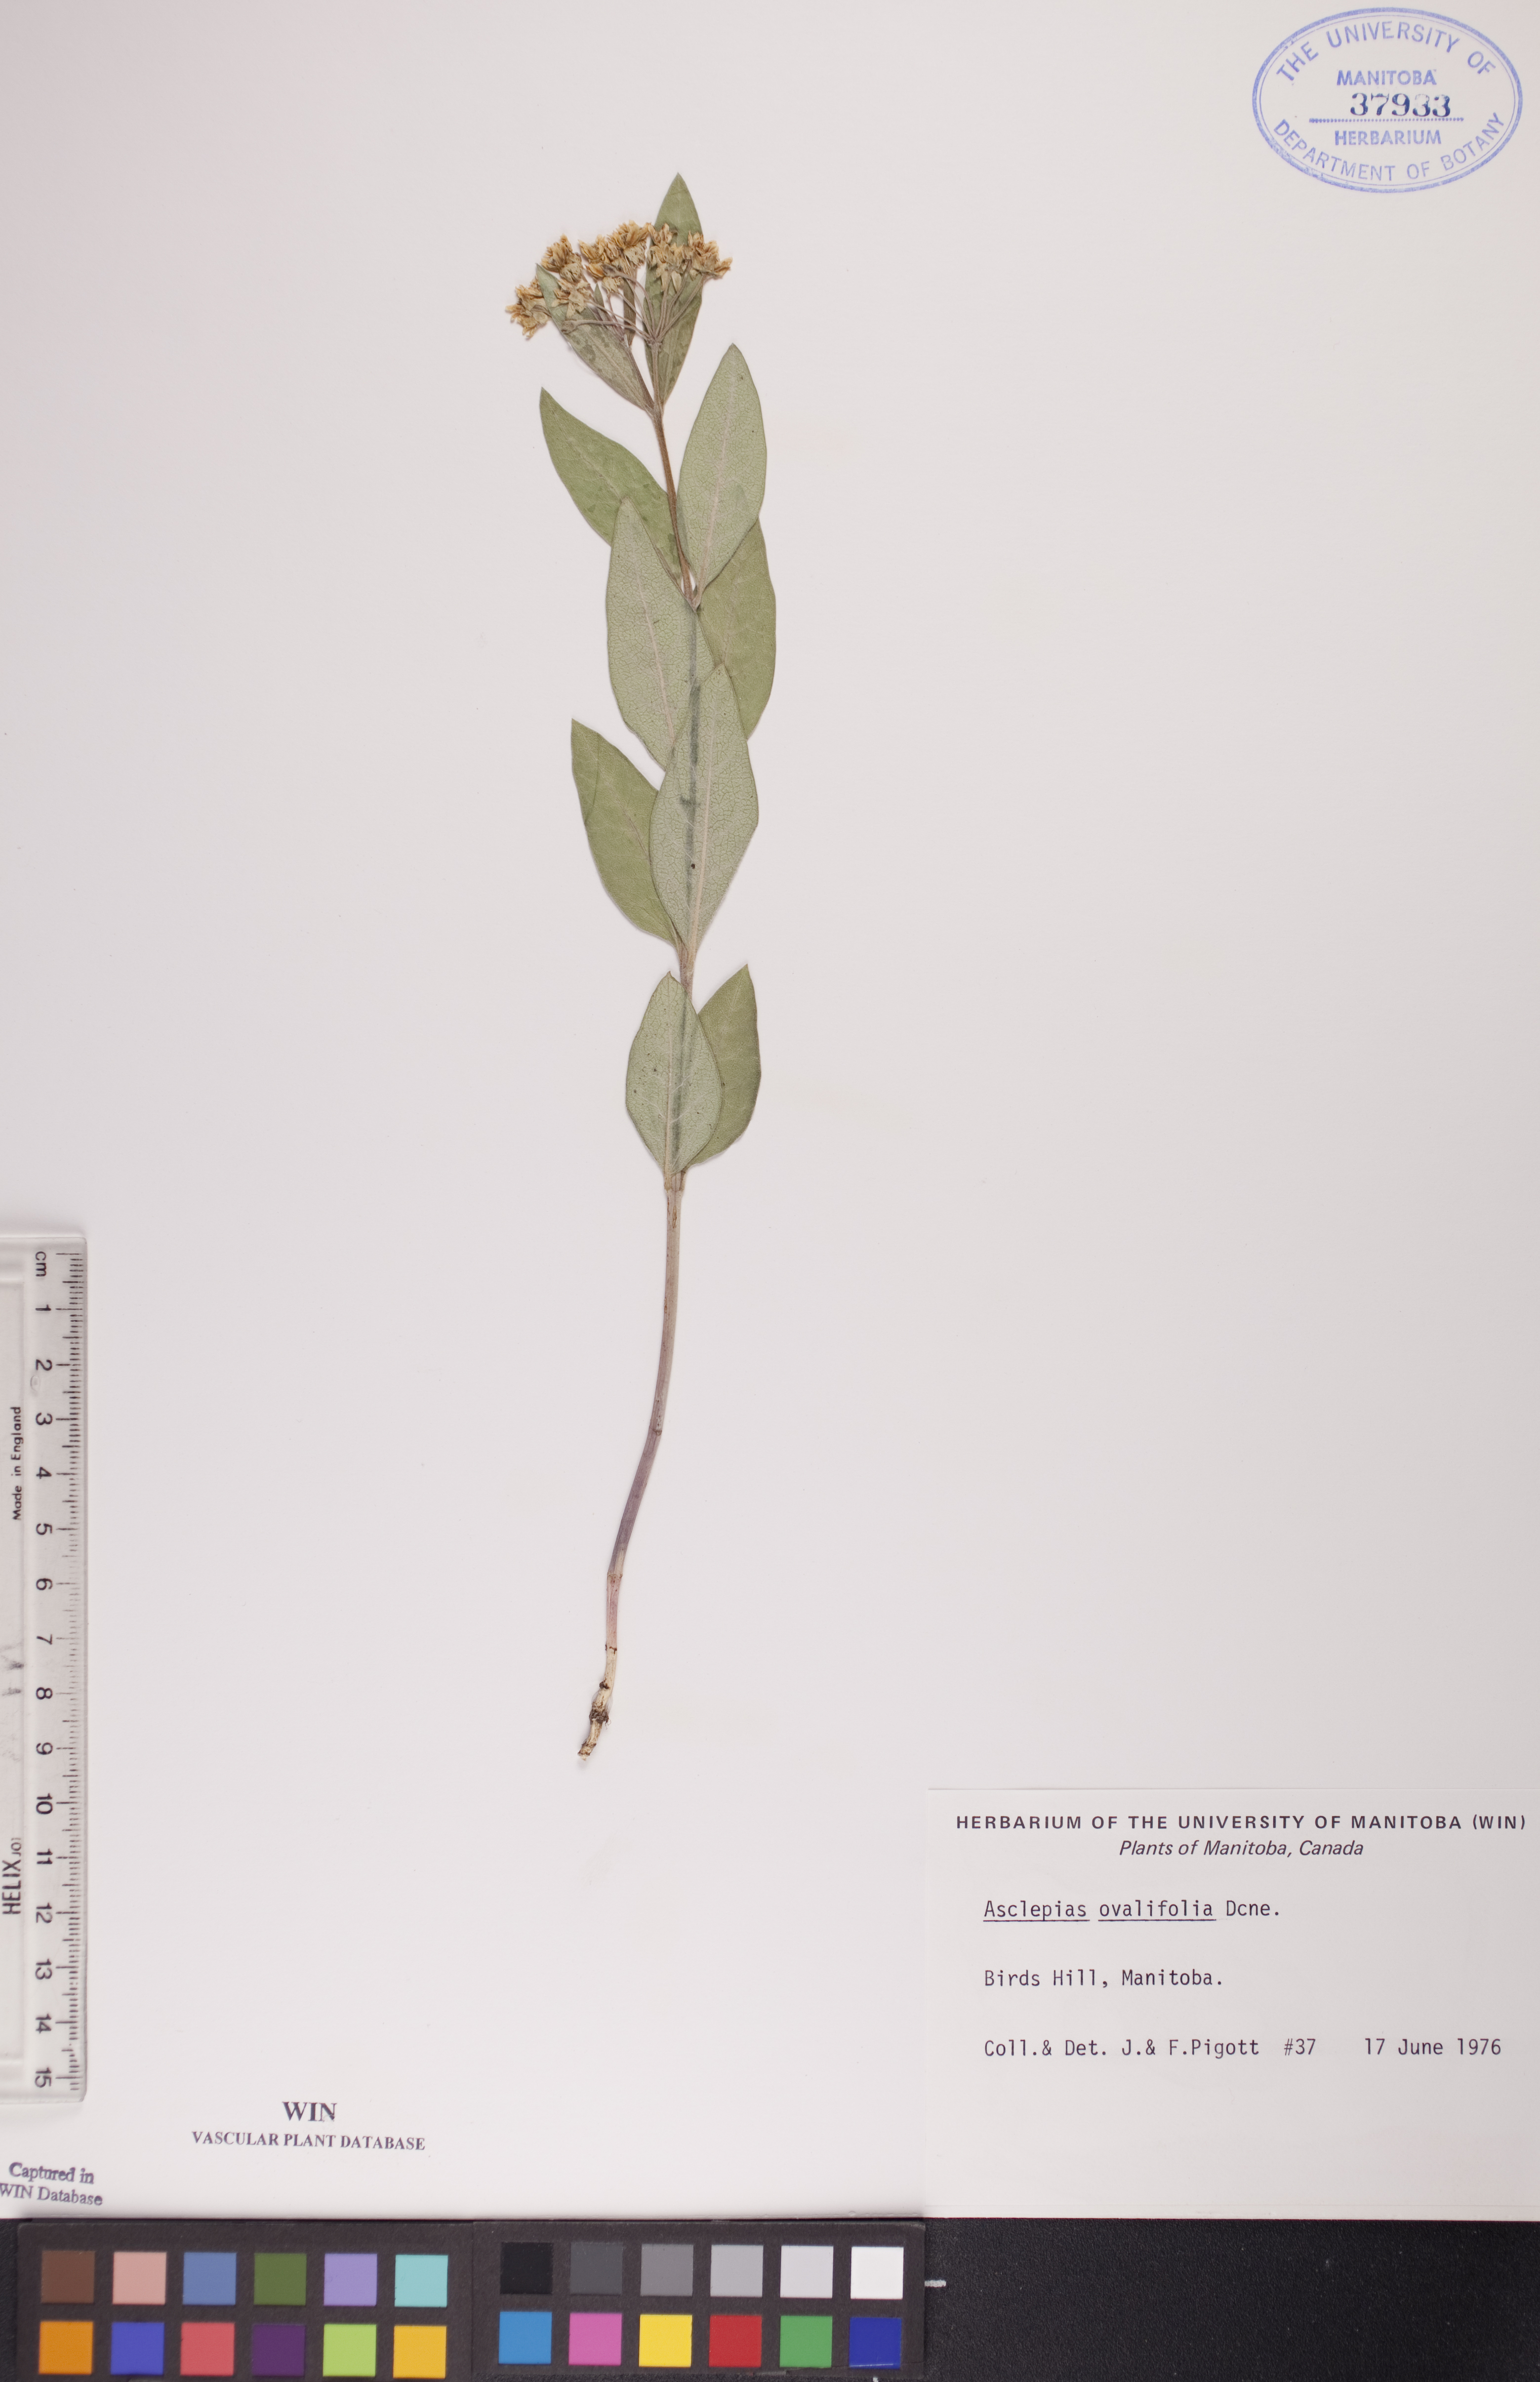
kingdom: Plantae
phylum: Tracheophyta
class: Magnoliopsida
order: Gentianales
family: Apocynaceae
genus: Asclepias
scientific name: Asclepias ovalifolia
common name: Dwarf milkweed
